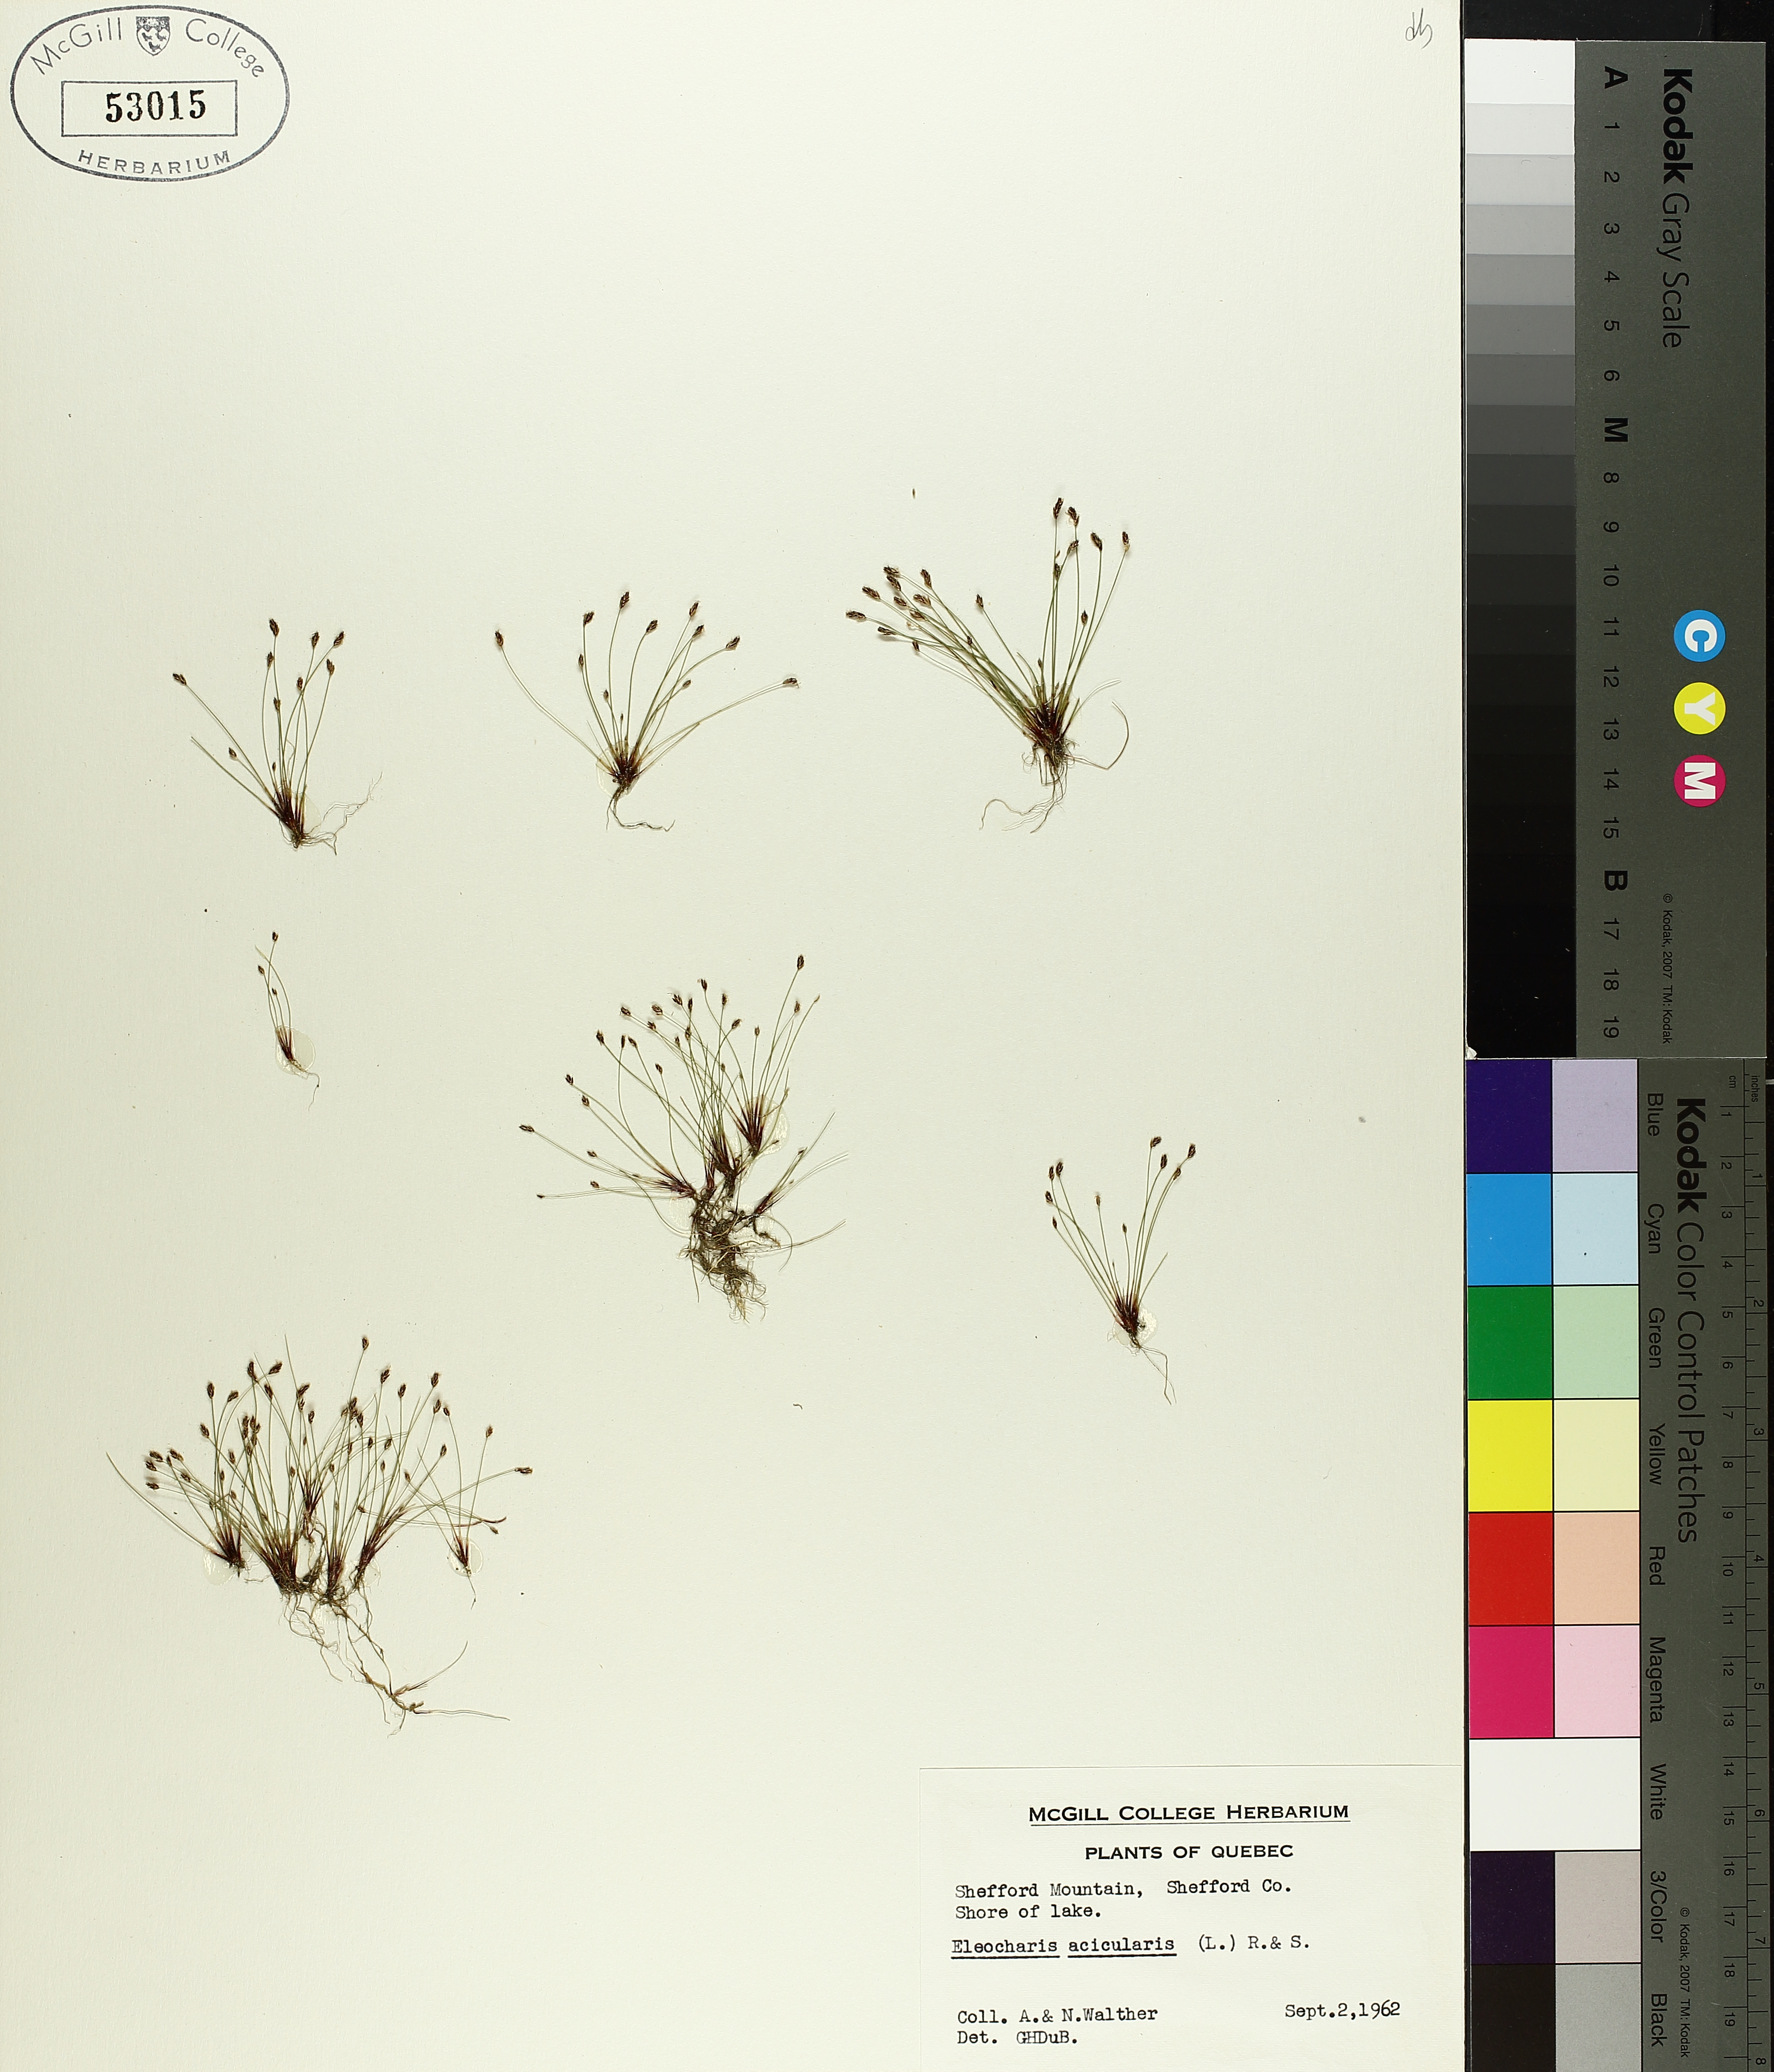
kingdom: Plantae
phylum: Tracheophyta
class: Liliopsida
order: Poales
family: Cyperaceae
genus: Eleocharis
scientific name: Eleocharis acicularis
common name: Needle spike-rush
